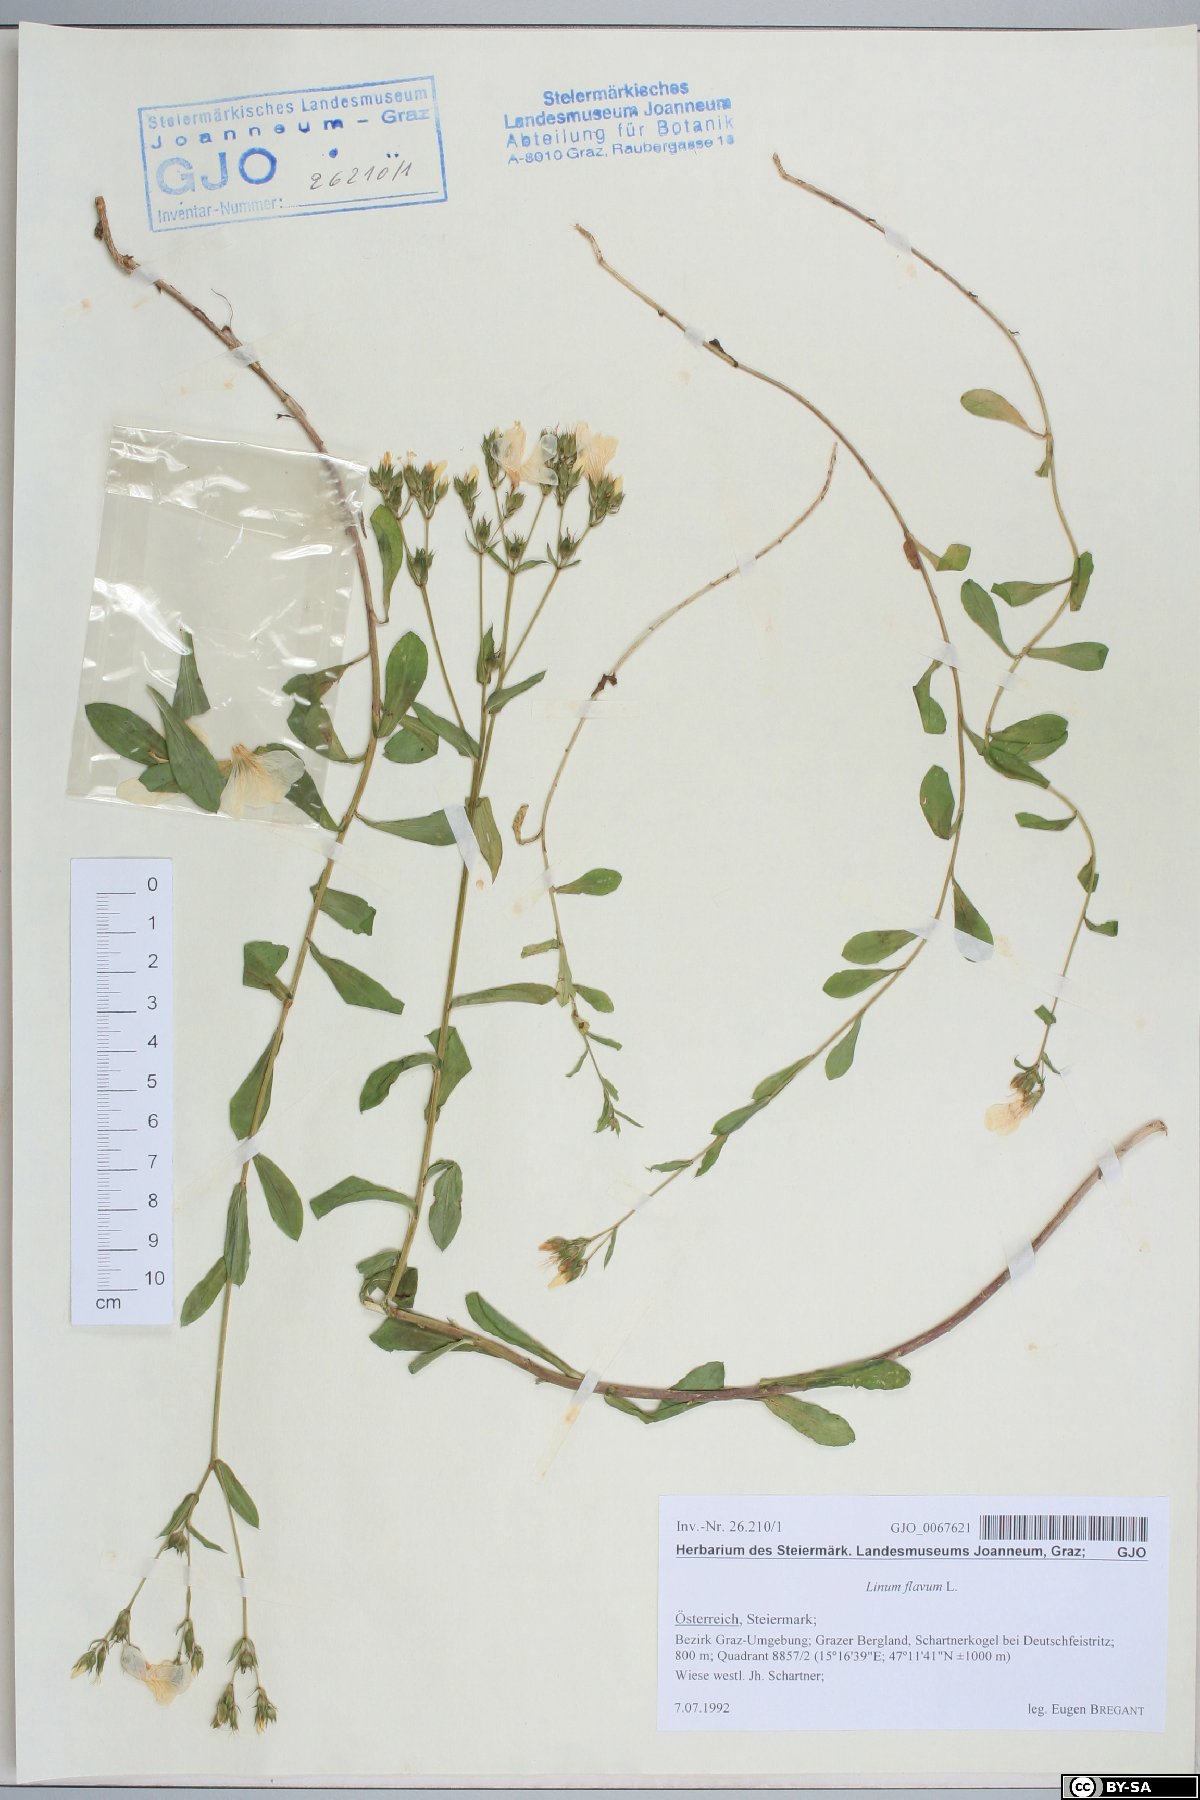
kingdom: Plantae
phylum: Tracheophyta
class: Magnoliopsida
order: Malpighiales
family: Linaceae
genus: Linum
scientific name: Linum flavum
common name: Yellow flax
